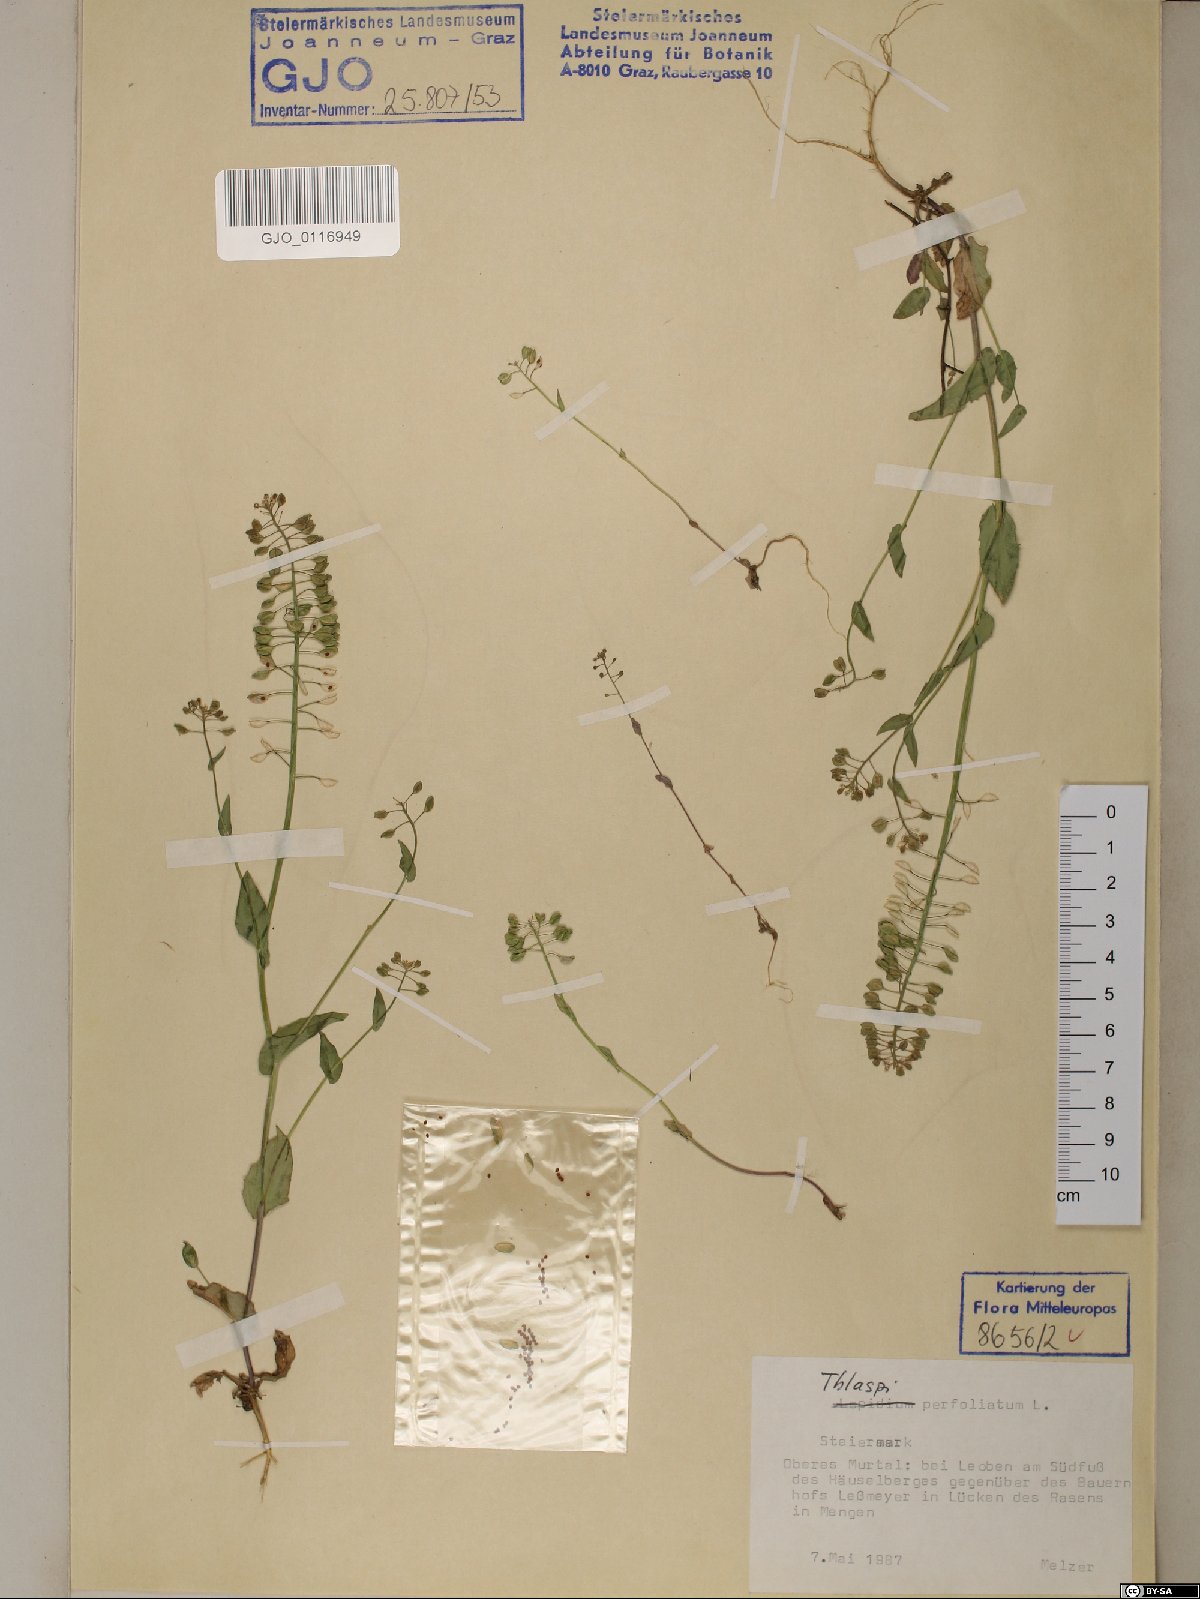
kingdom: Plantae
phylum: Tracheophyta
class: Magnoliopsida
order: Brassicales
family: Brassicaceae
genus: Noccaea
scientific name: Noccaea perfoliata
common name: Perfoliate pennycress
